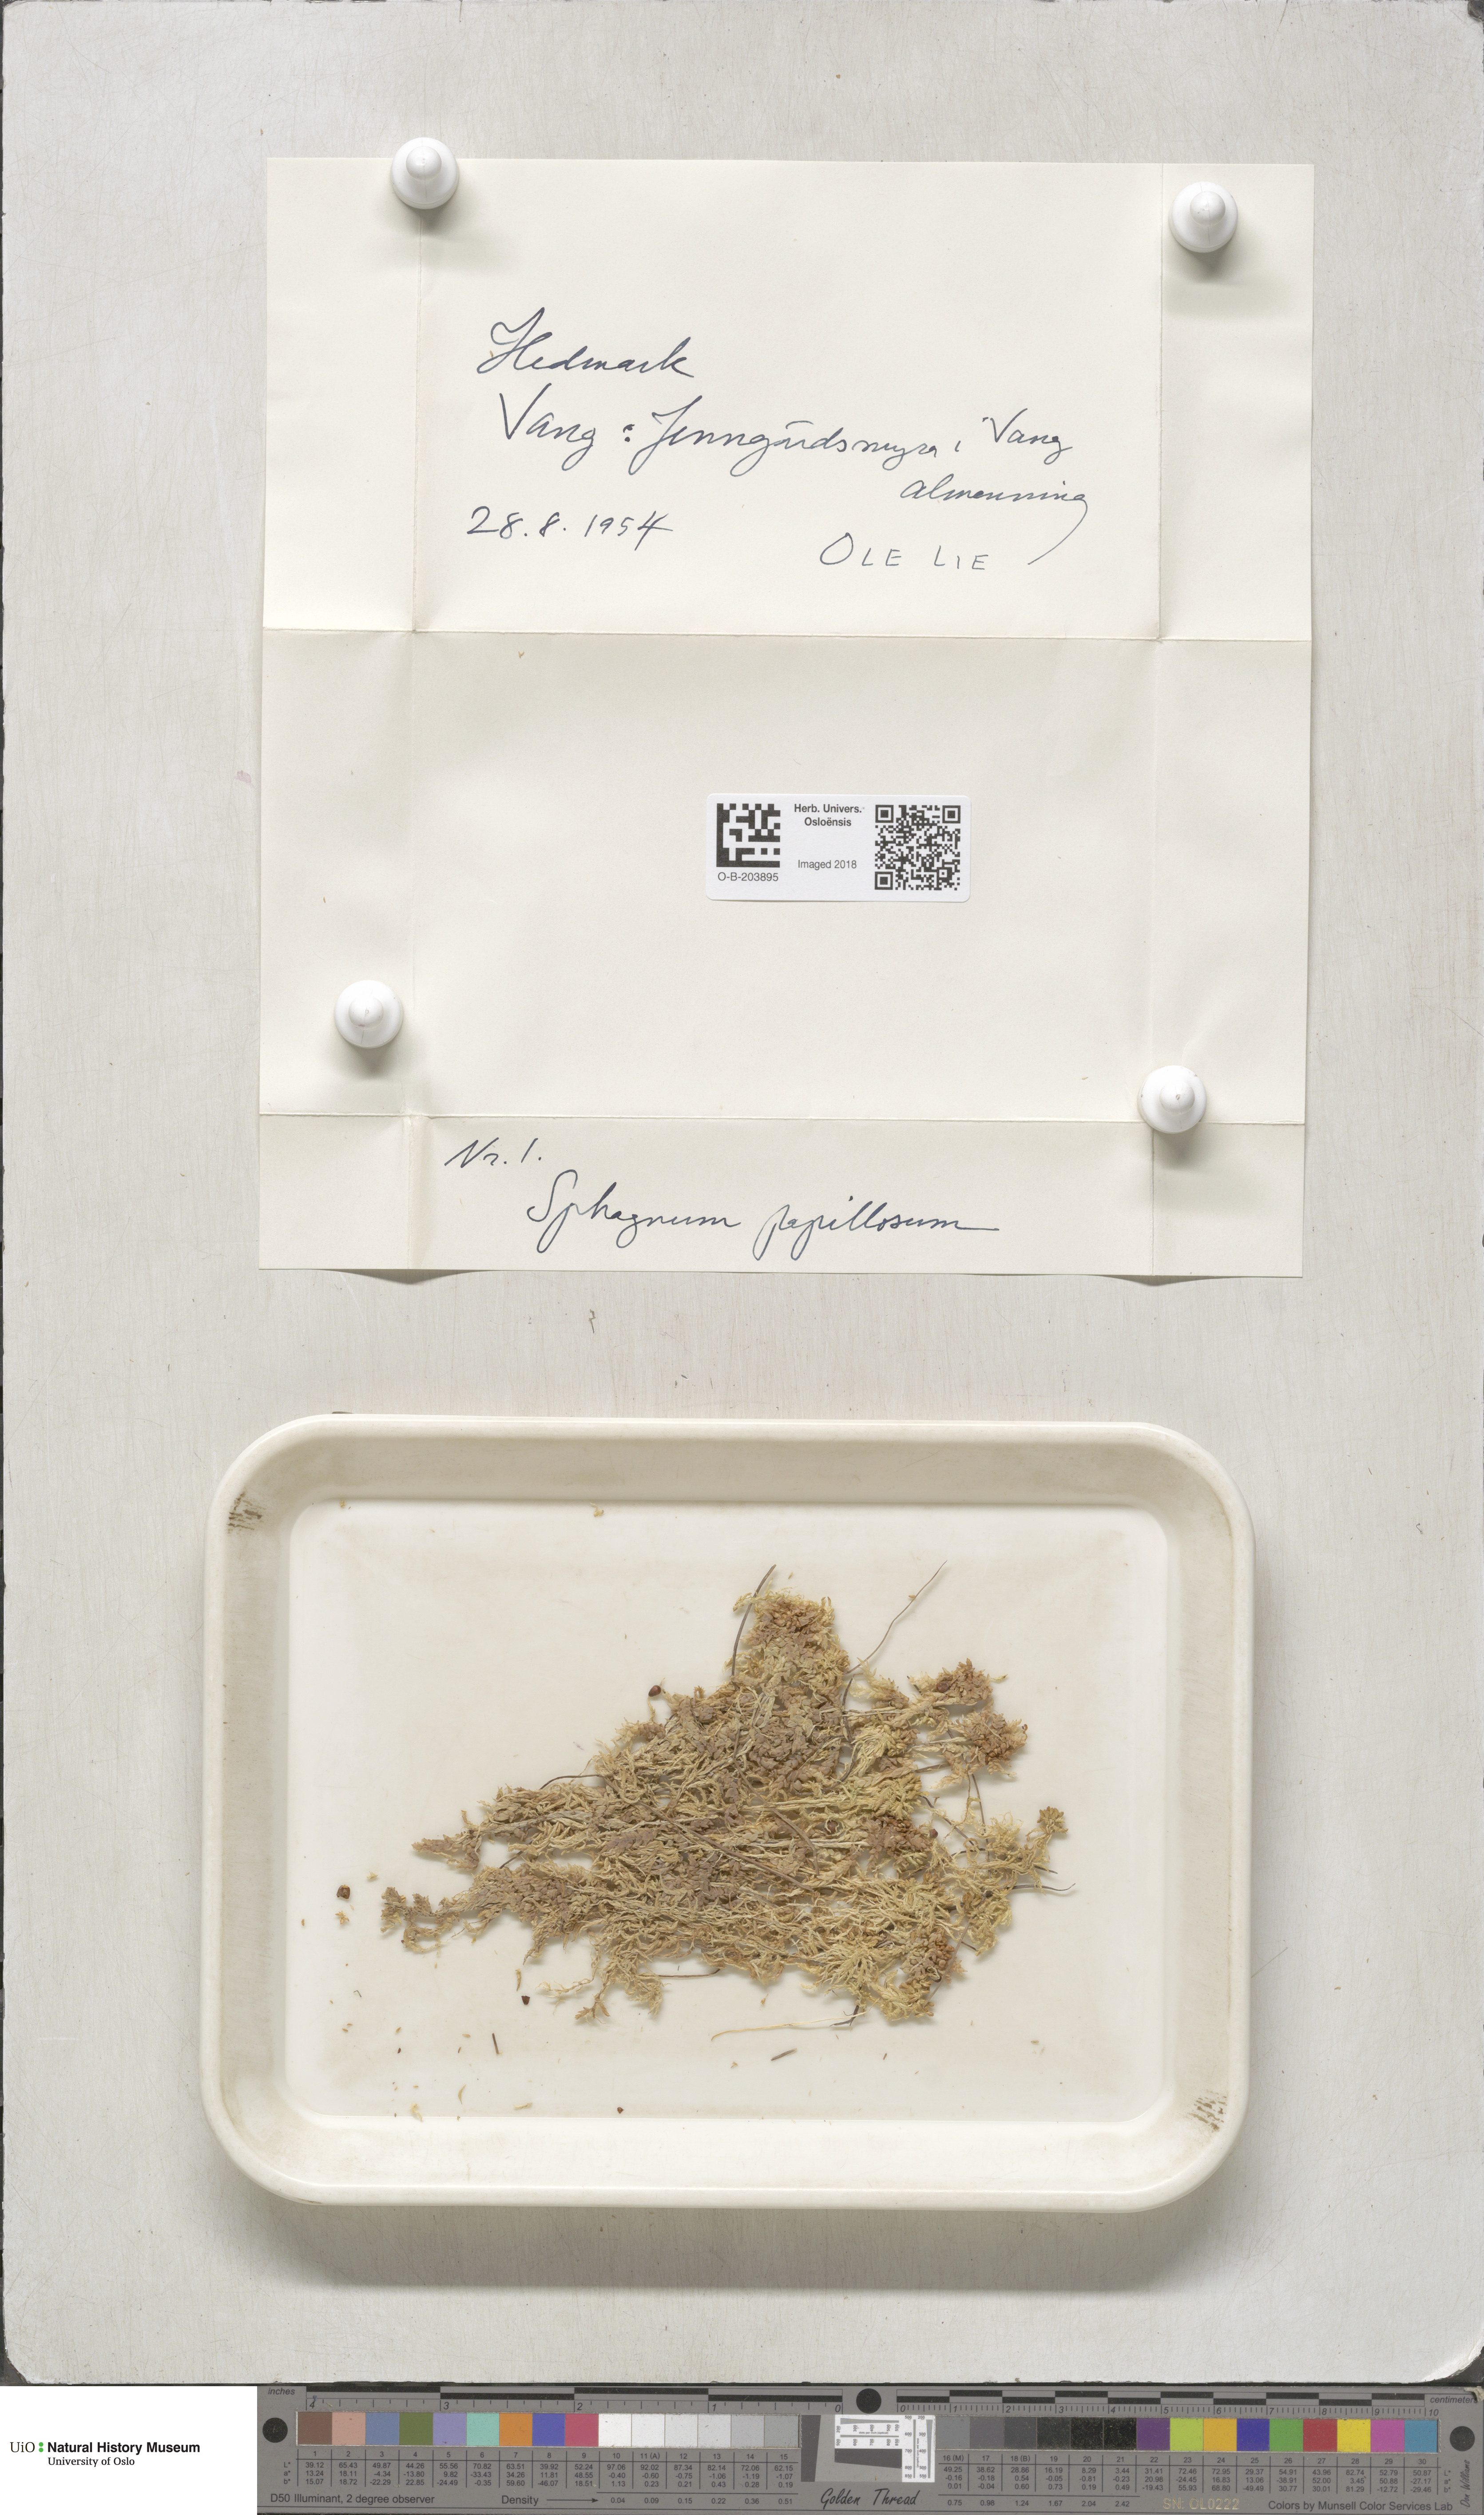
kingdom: Plantae
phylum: Bryophyta
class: Sphagnopsida
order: Sphagnales
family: Sphagnaceae
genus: Sphagnum
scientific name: Sphagnum papillosum
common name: Papillose peat moss
